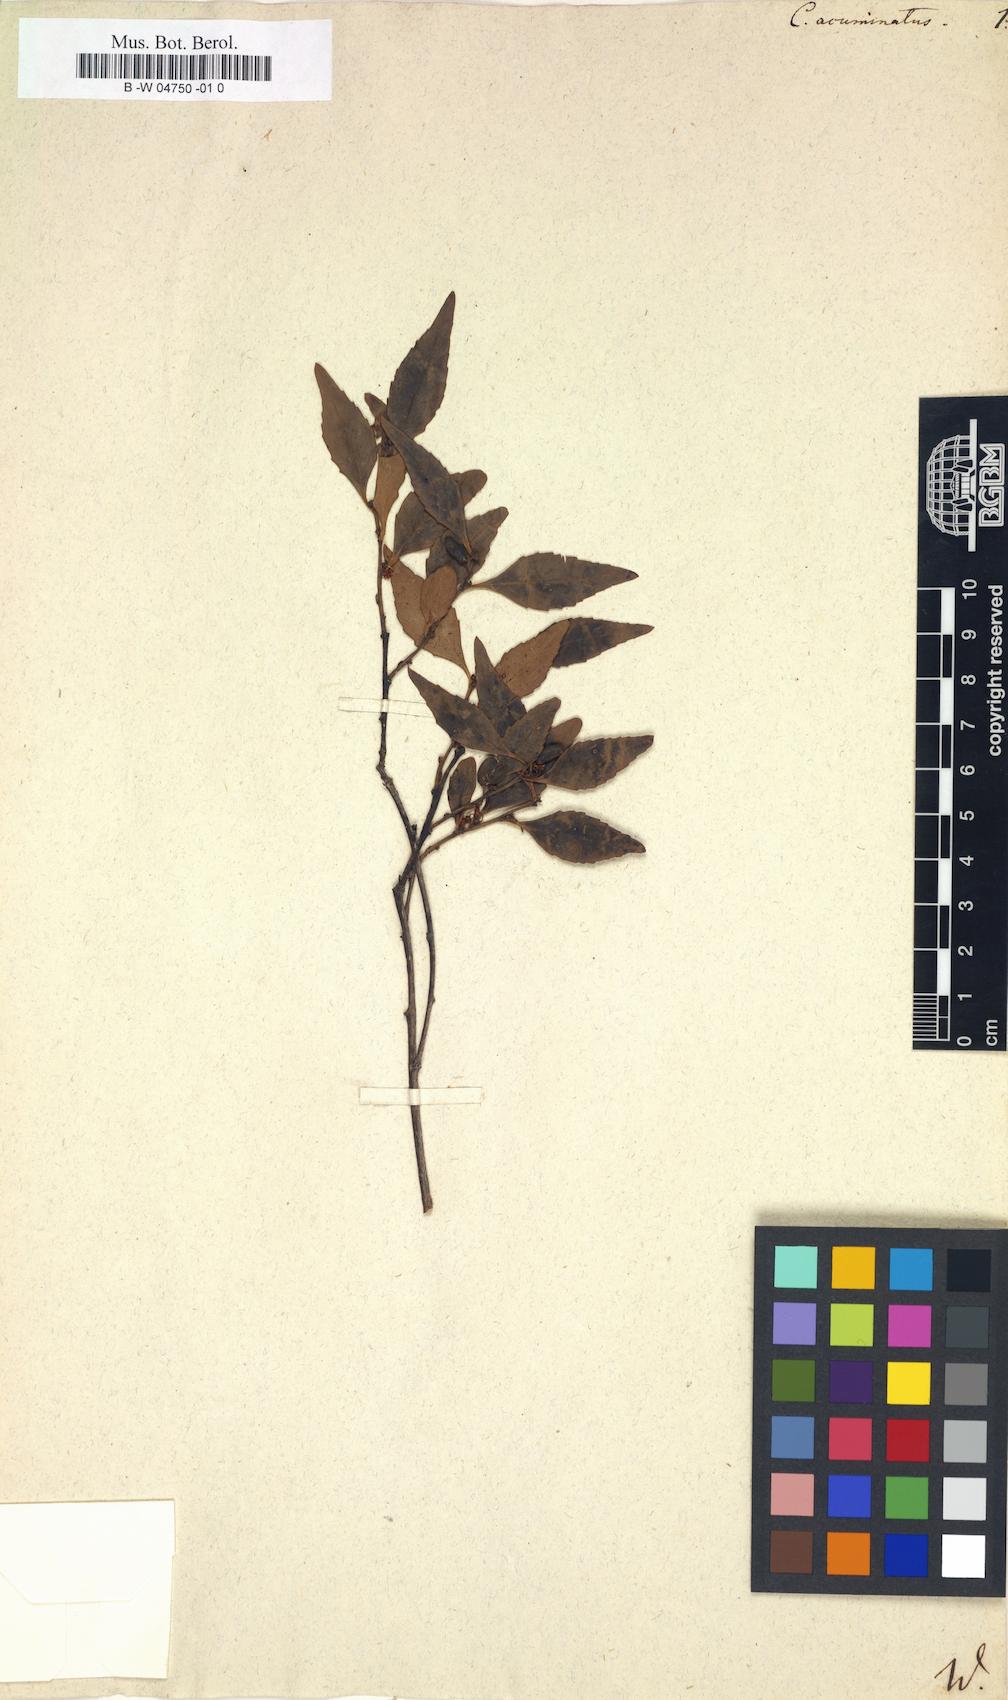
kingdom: Plantae
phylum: Tracheophyta
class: Magnoliopsida
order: Celastrales
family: Celastraceae
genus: Gymnosporia
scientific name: Gymnosporia acuminata
